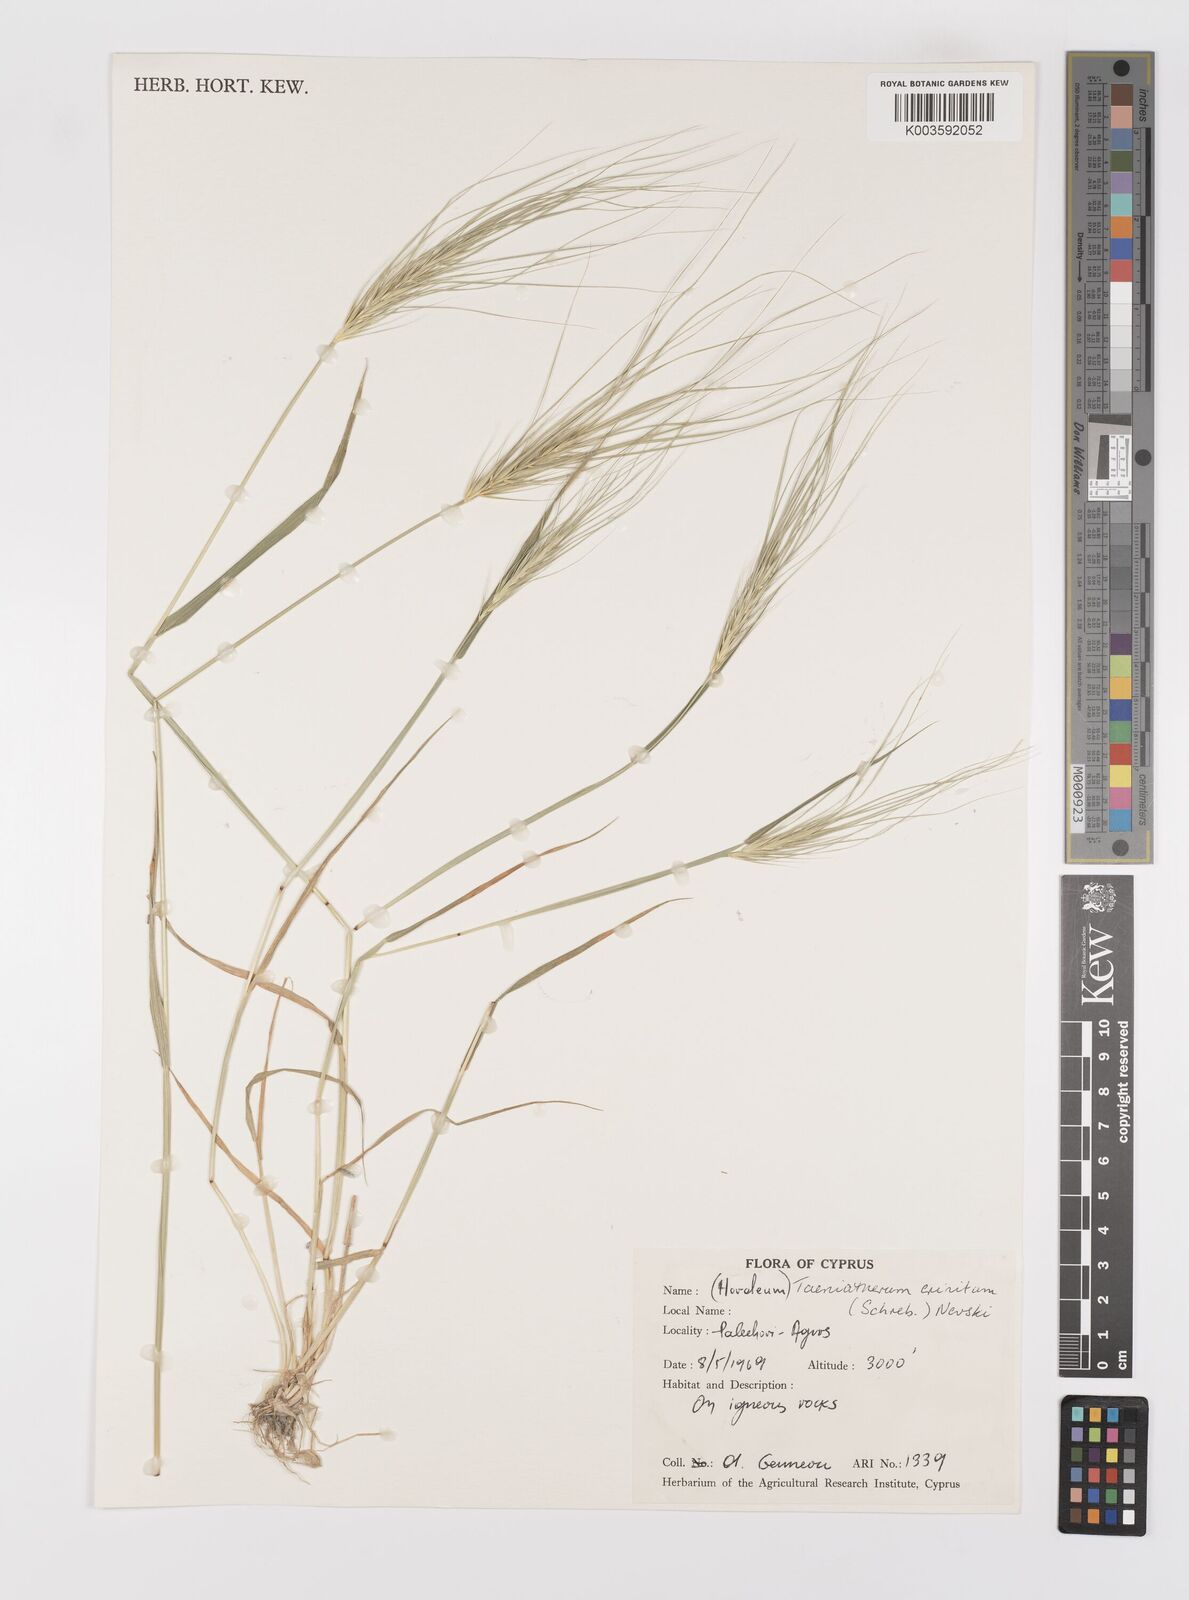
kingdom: Plantae
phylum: Tracheophyta
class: Liliopsida
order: Poales
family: Poaceae
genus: Taeniatherum
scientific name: Taeniatherum caput-medusae
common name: Medusahead
